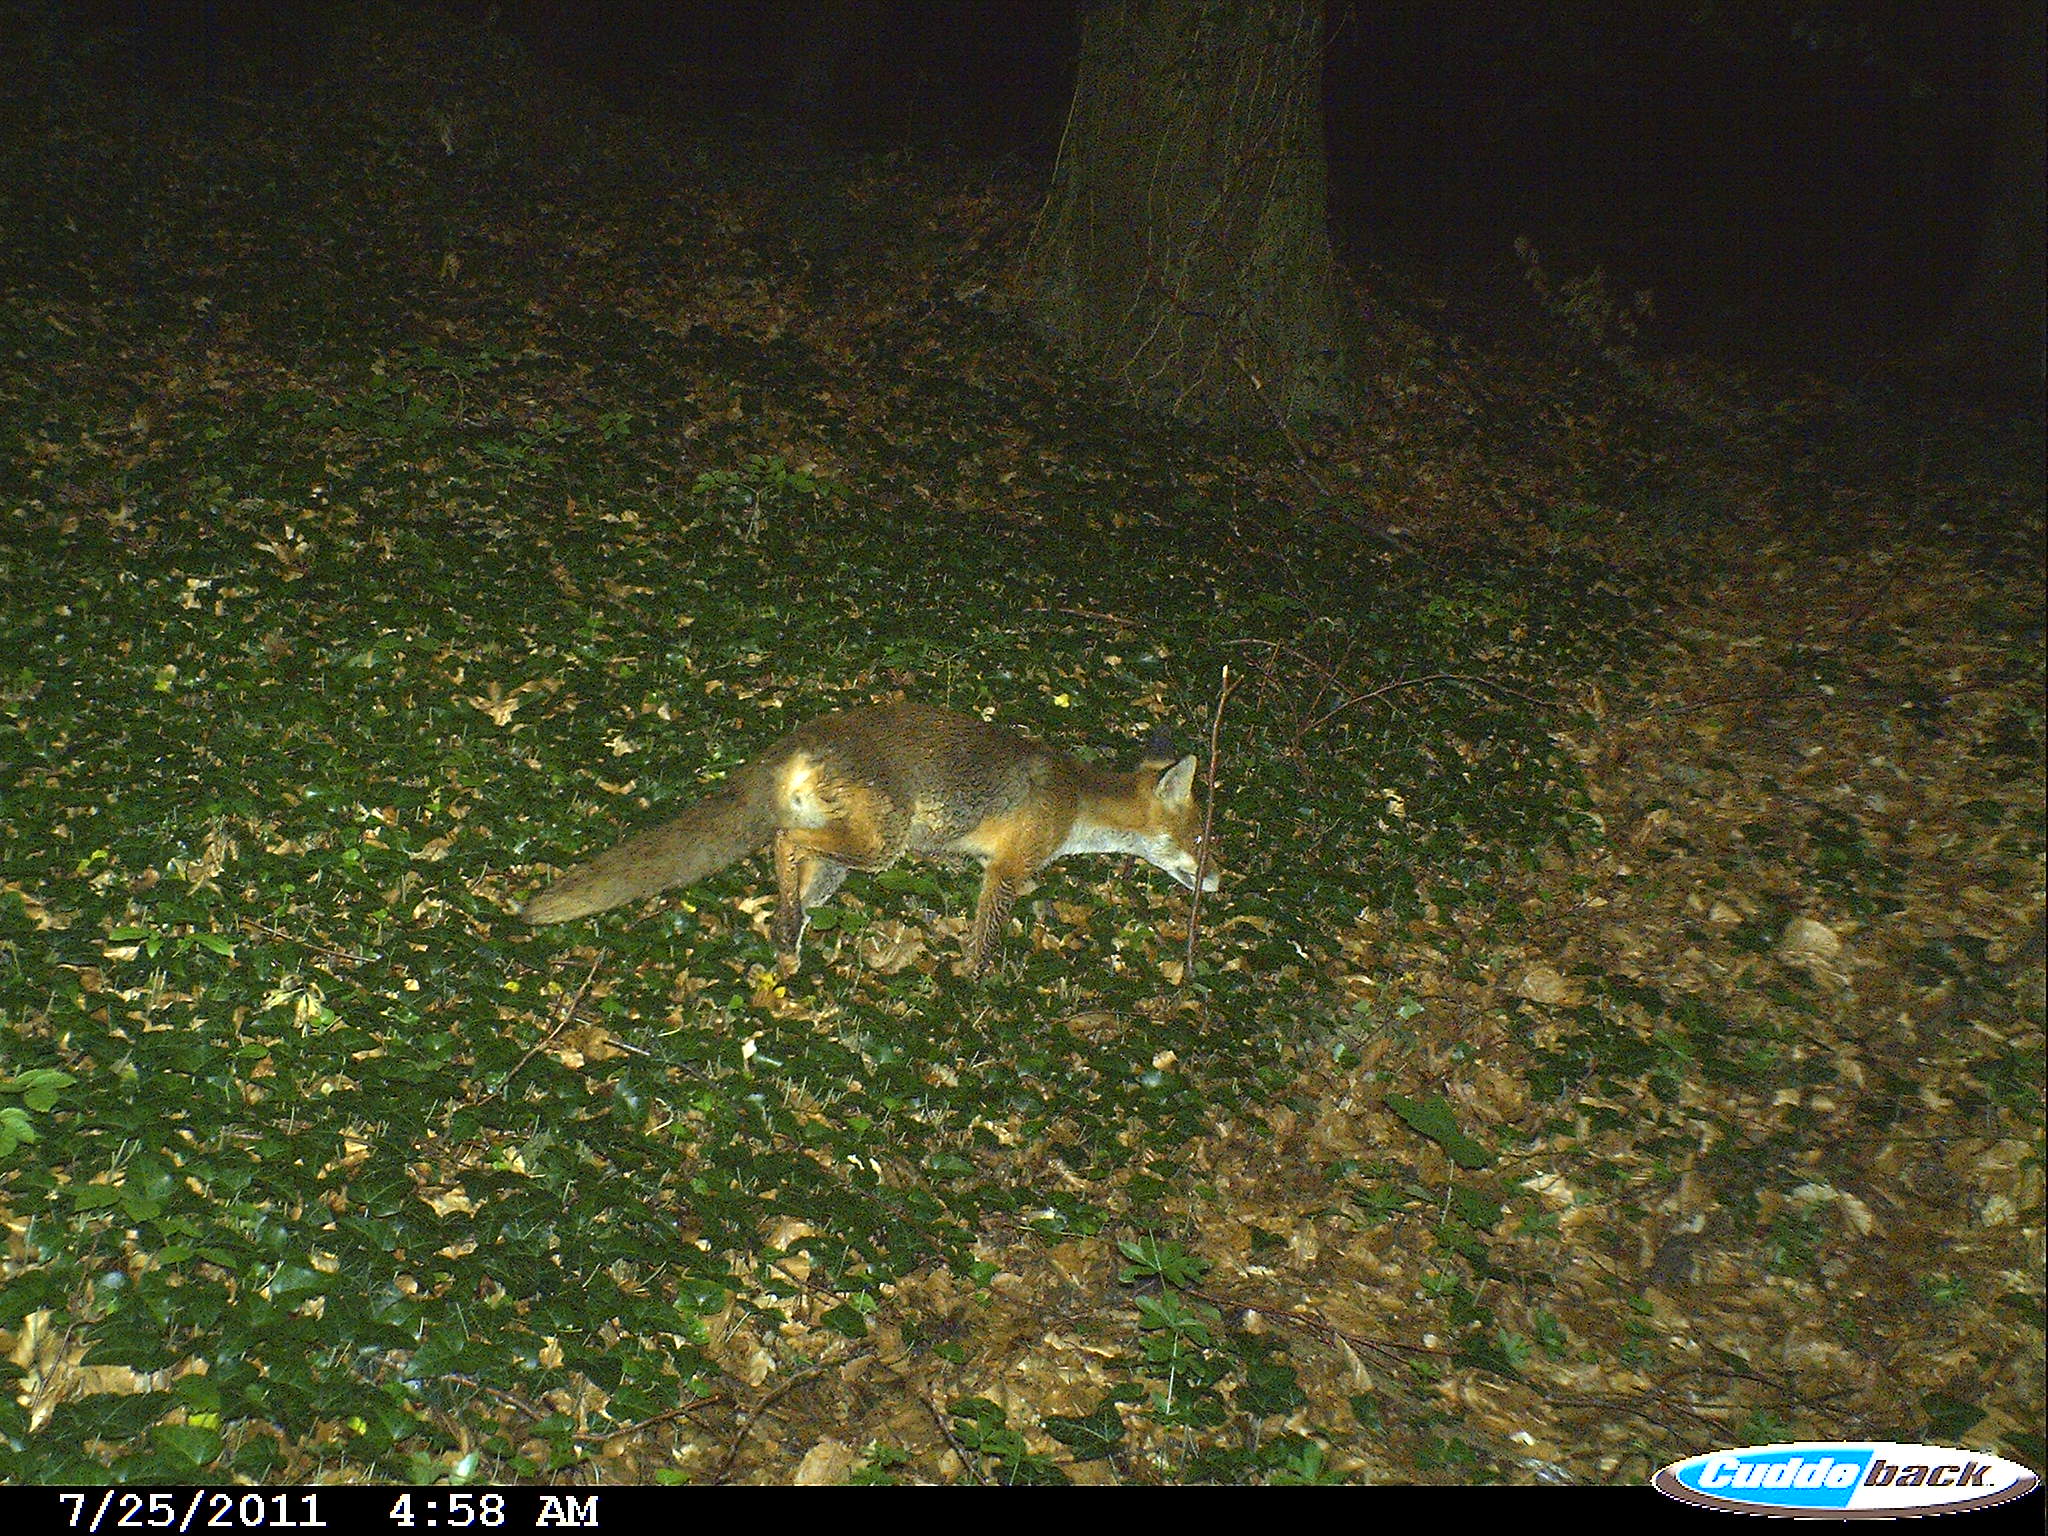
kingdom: Animalia
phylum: Chordata
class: Mammalia
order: Carnivora
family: Canidae
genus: Vulpes
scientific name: Vulpes vulpes
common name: Red fox
